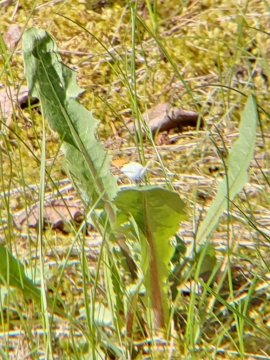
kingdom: Animalia
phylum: Arthropoda
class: Insecta
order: Lepidoptera
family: Pieridae
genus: Anthocharis
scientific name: Anthocharis julia
